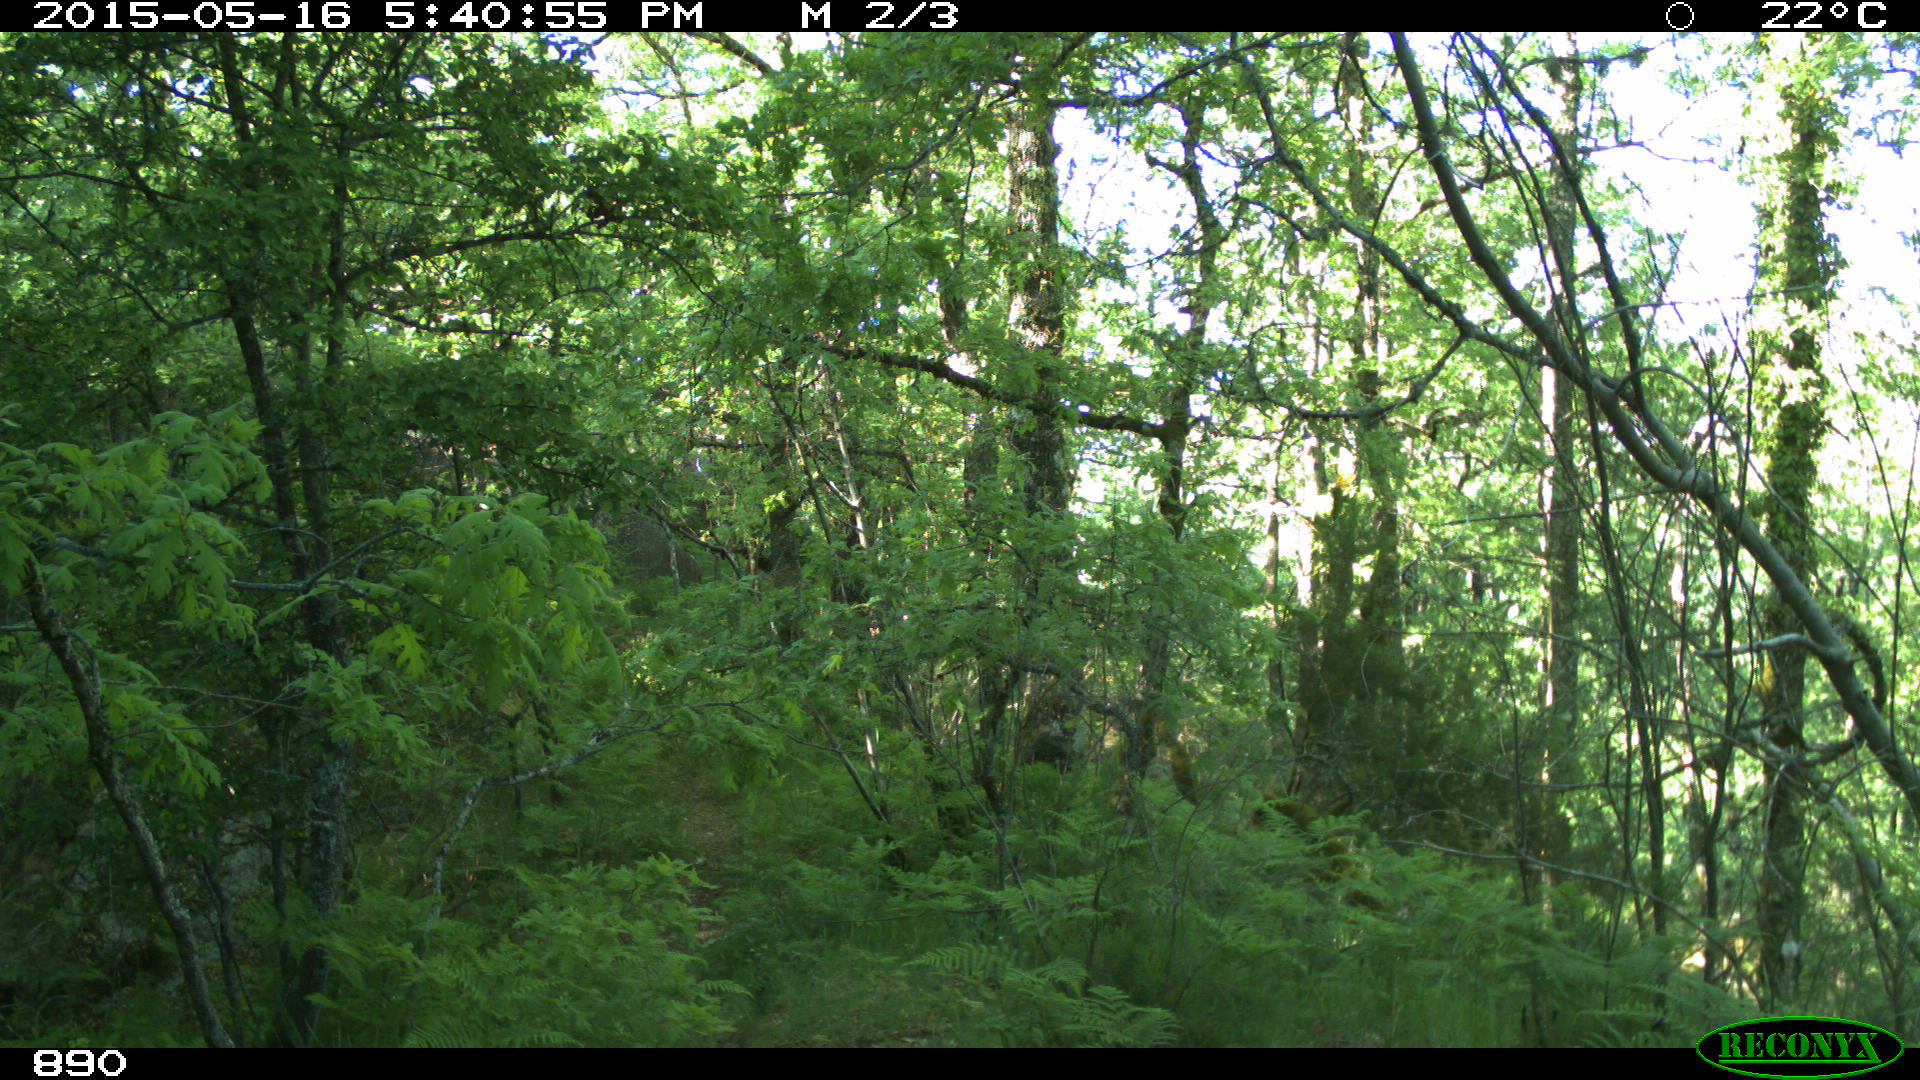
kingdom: Animalia
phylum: Chordata
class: Mammalia
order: Artiodactyla
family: Cervidae
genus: Capreolus
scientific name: Capreolus capreolus
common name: Western roe deer
